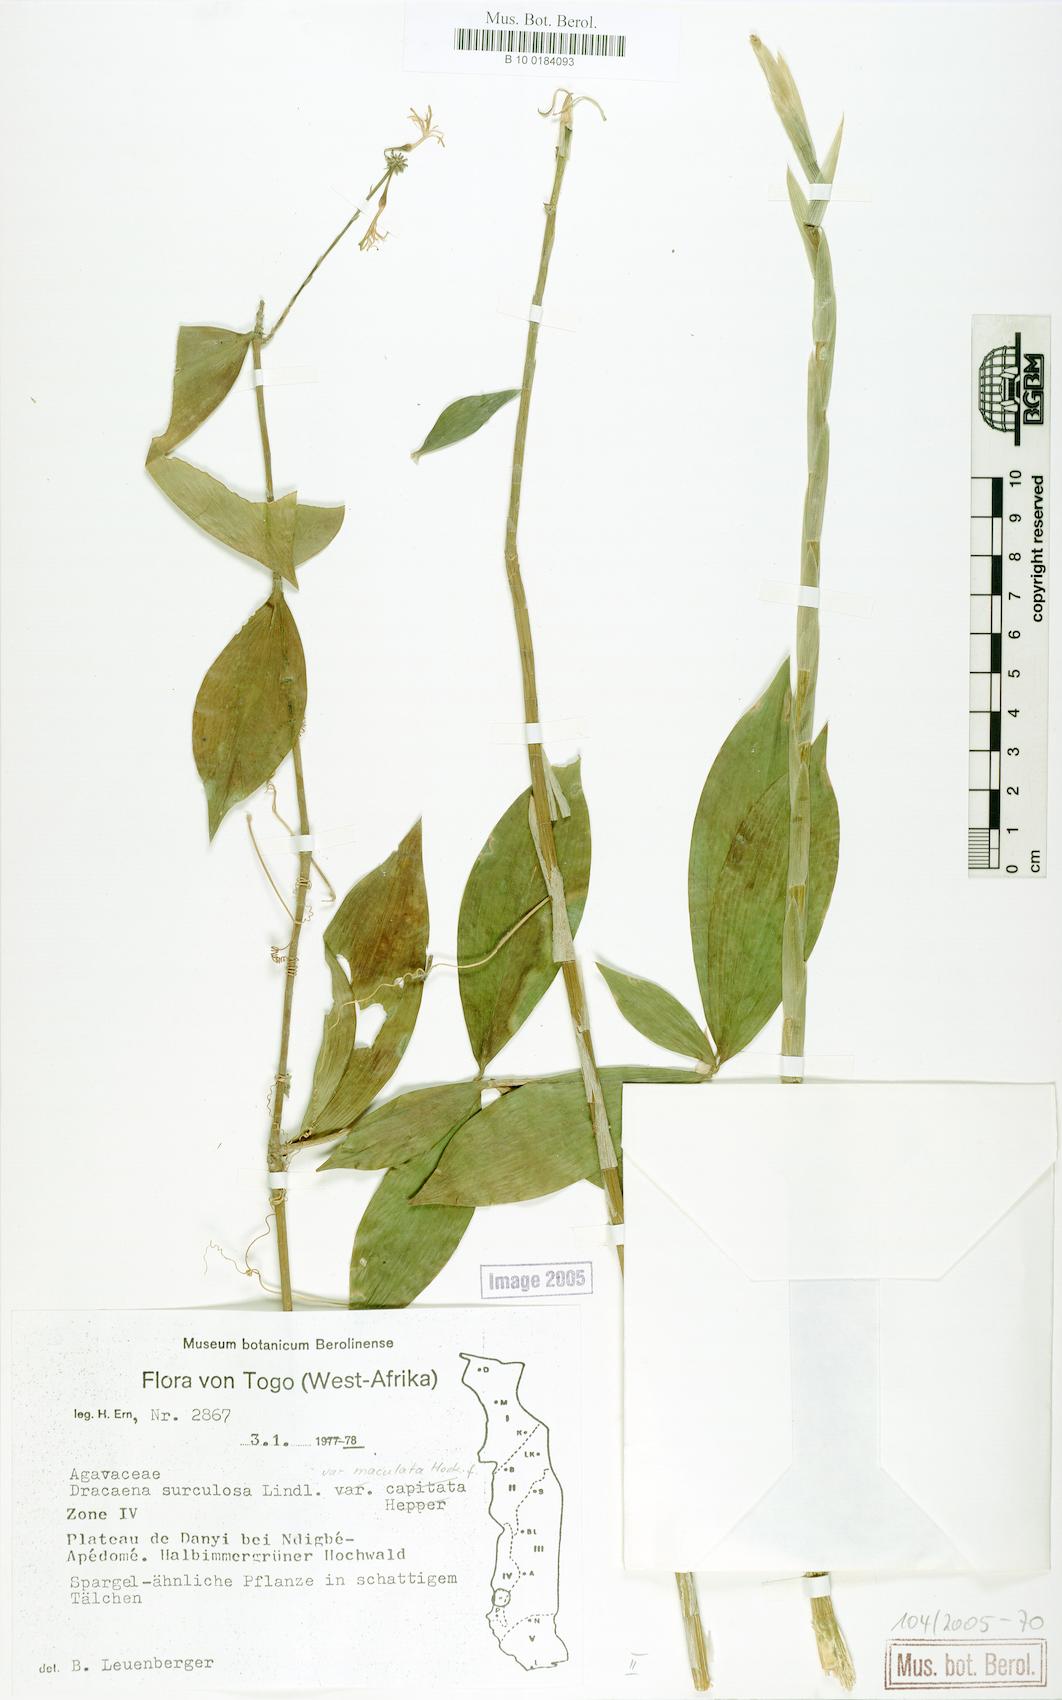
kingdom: Plantae
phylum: Tracheophyta
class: Liliopsida
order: Asparagales
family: Asparagaceae
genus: Dracaena
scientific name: Dracaena surculosa
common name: Spotted dracaena
